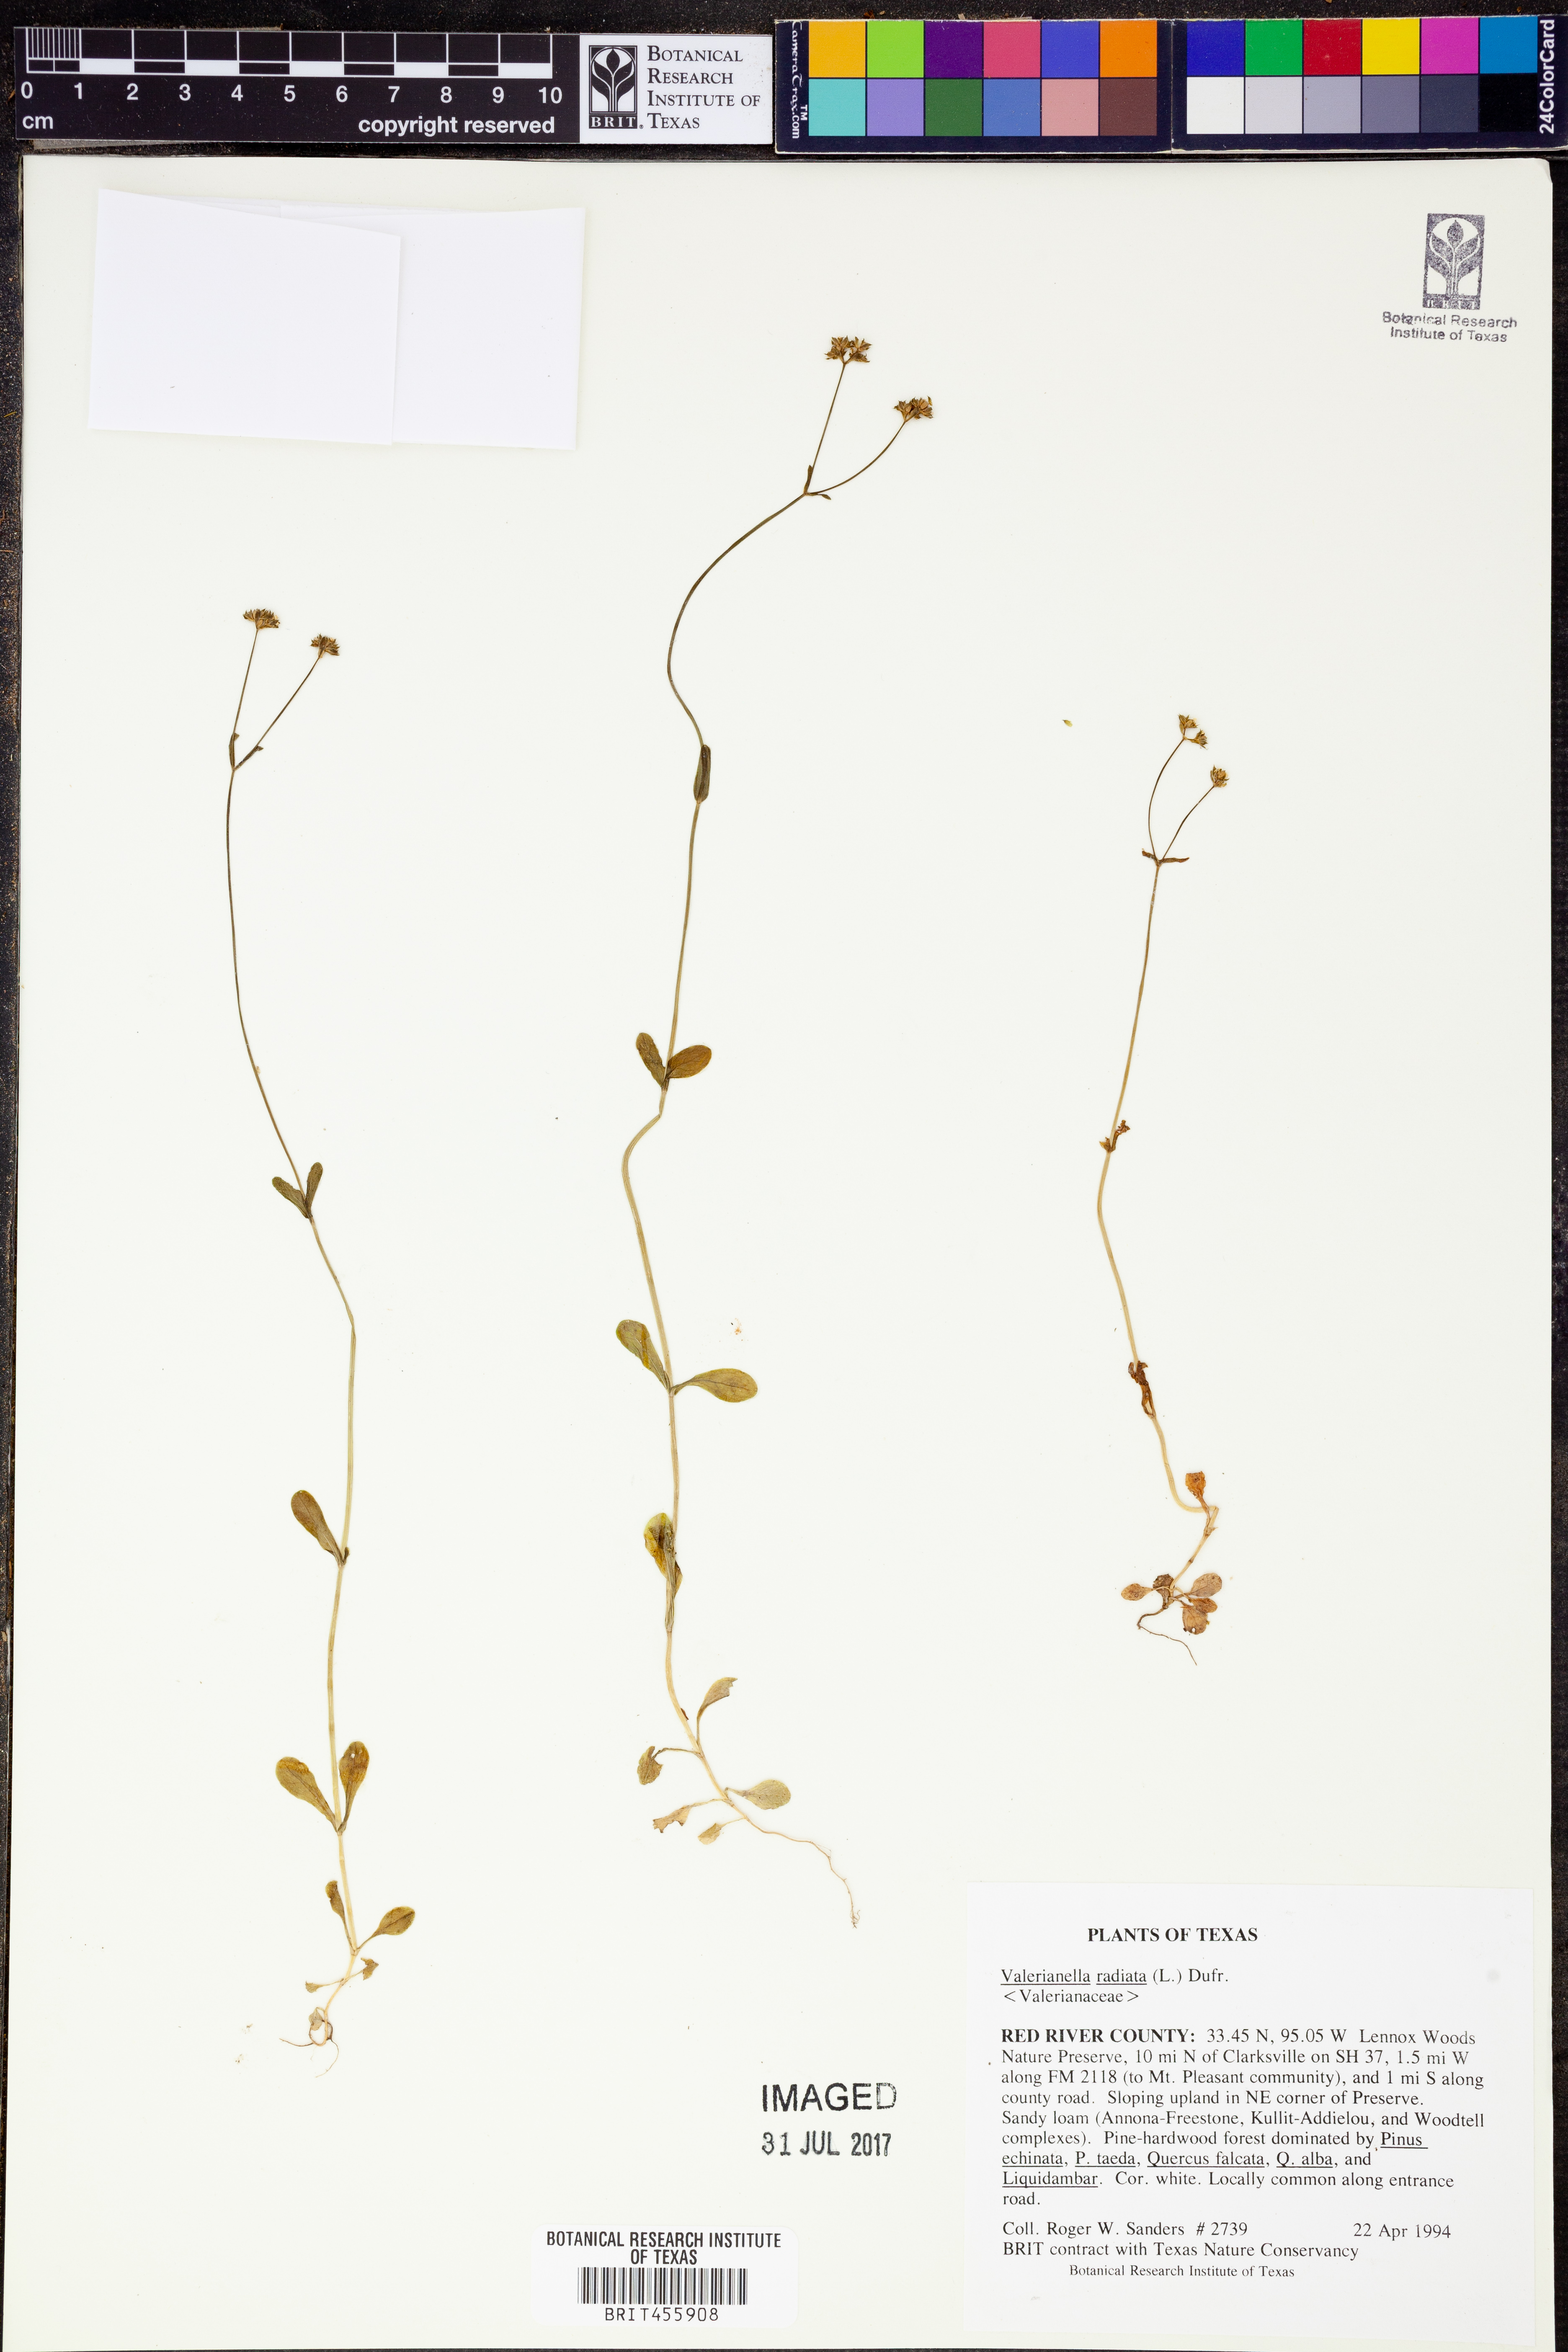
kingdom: Plantae
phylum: Tracheophyta
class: Magnoliopsida
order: Dipsacales
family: Caprifoliaceae
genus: Valerianella
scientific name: Valerianella radiata
